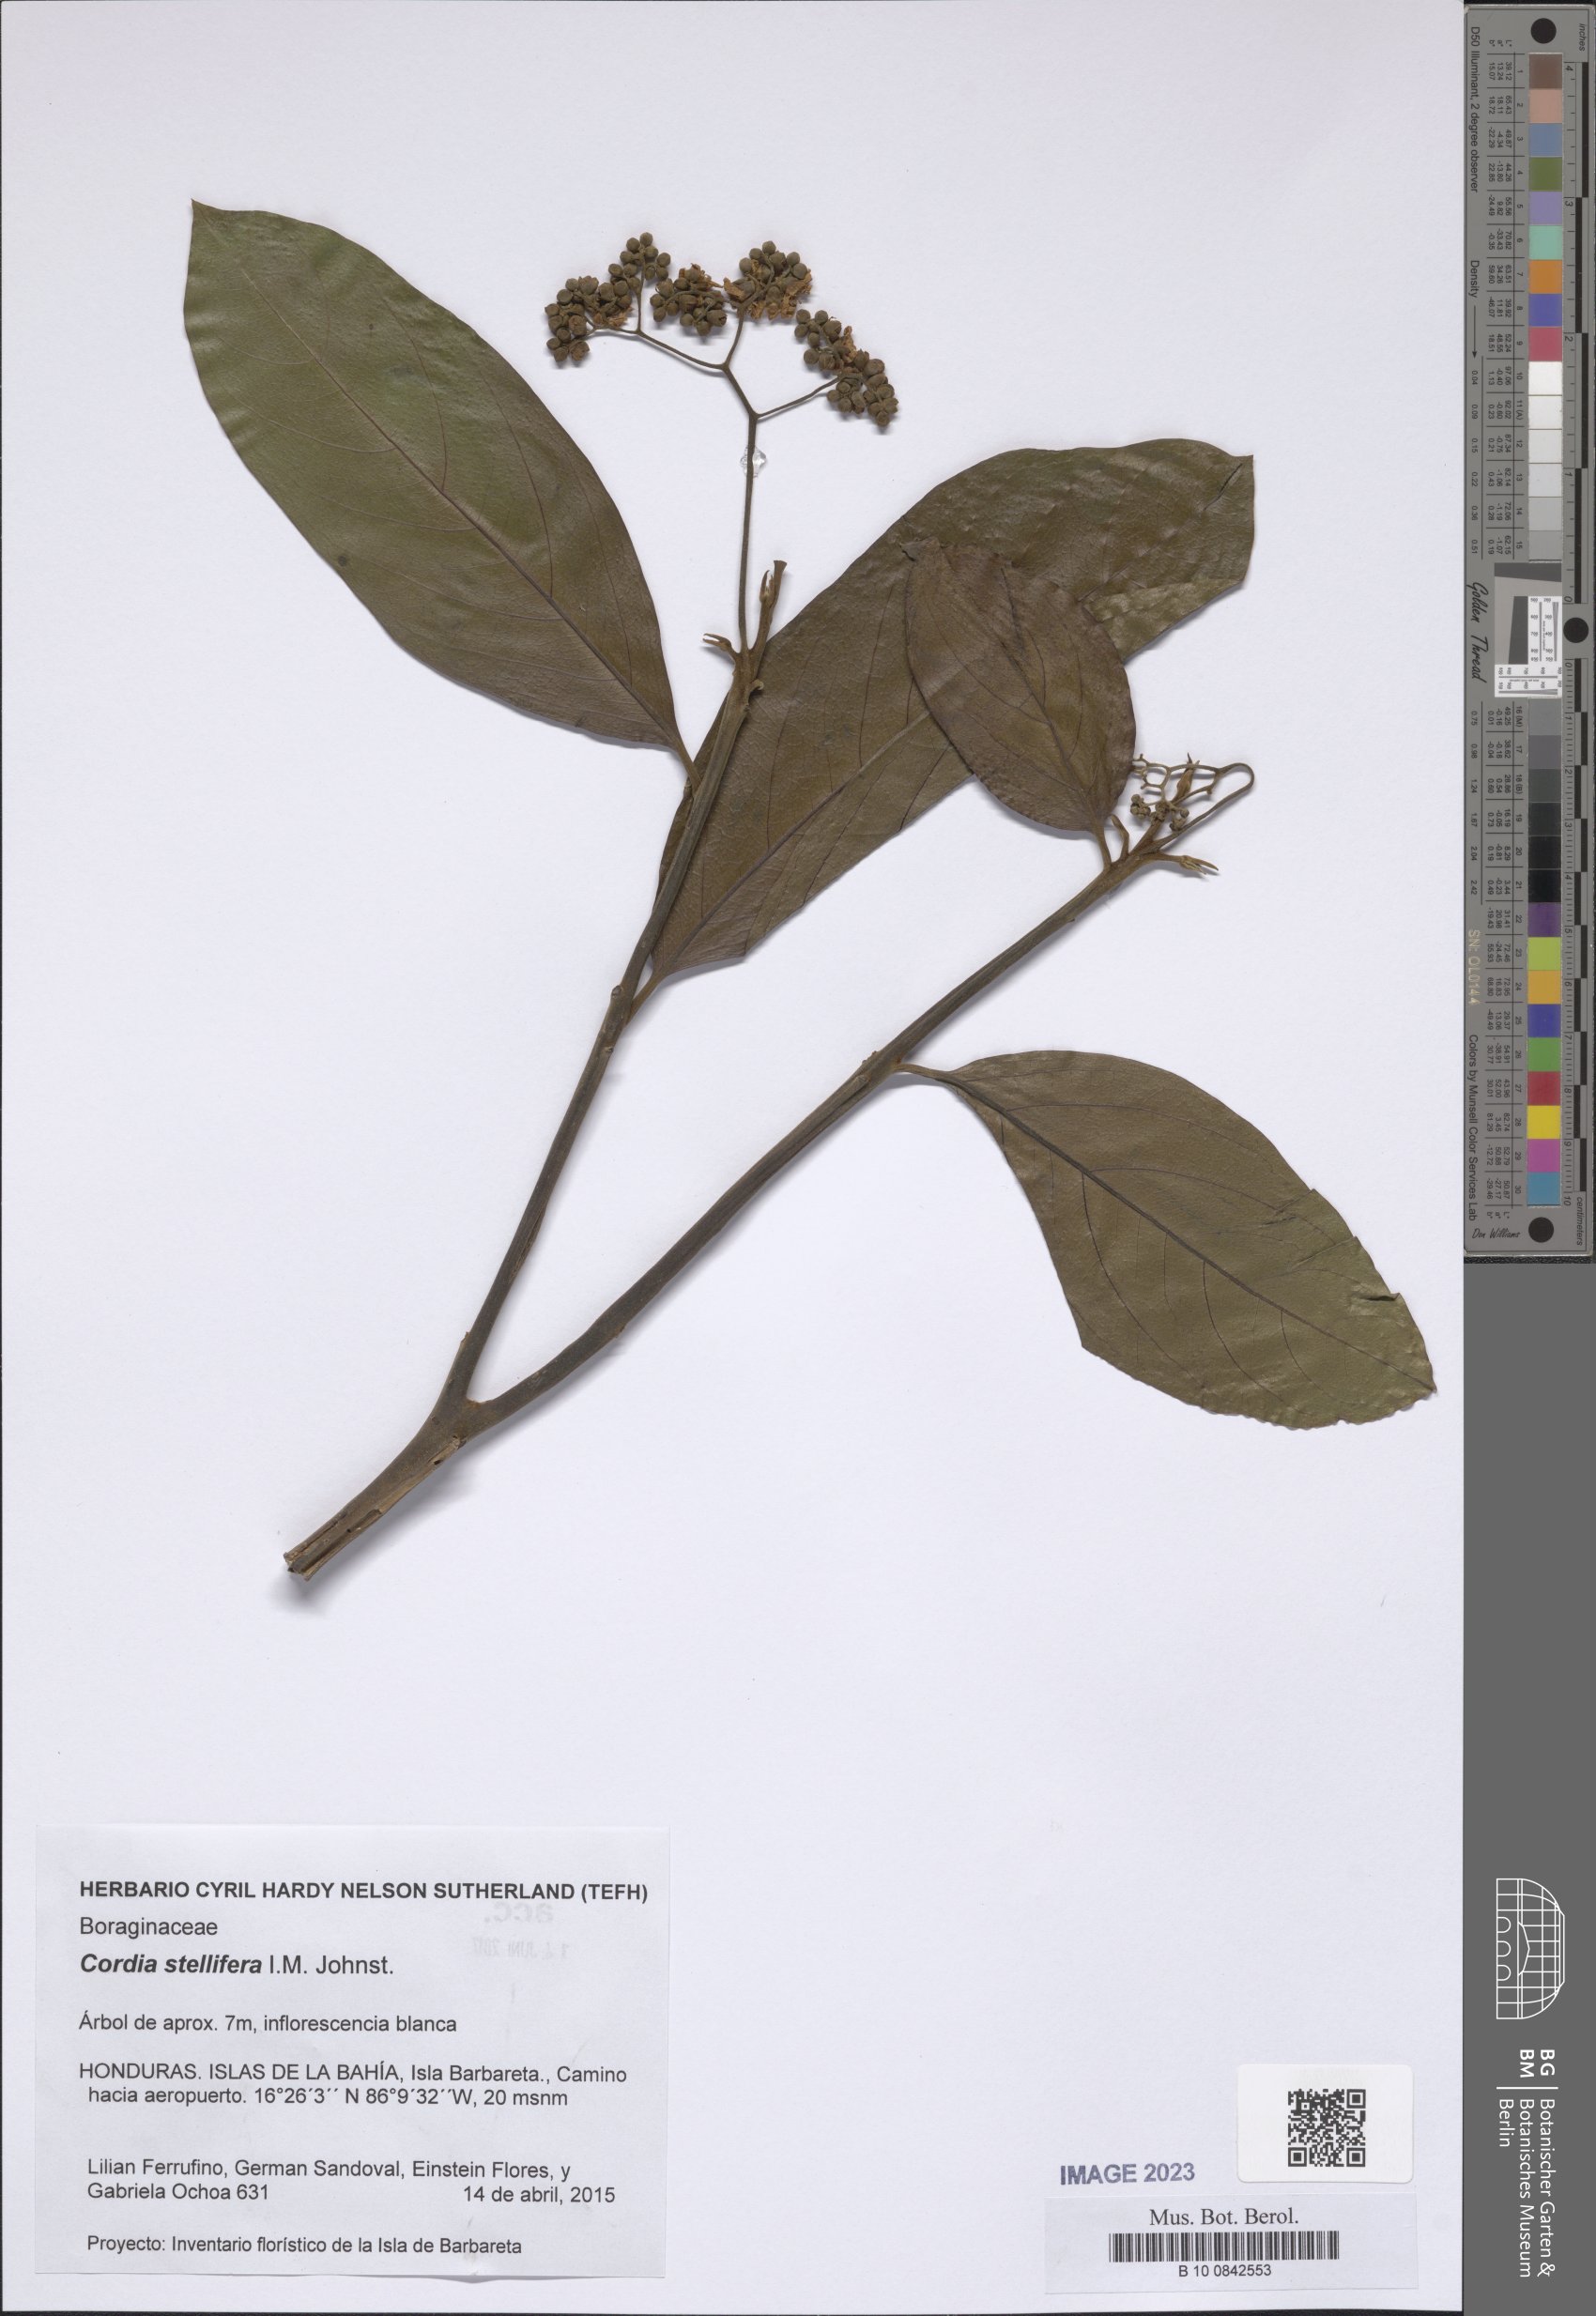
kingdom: Plantae
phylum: Tracheophyta
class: Magnoliopsida
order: Boraginales
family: Cordiaceae
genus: Cordia
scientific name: Cordia stellifera
